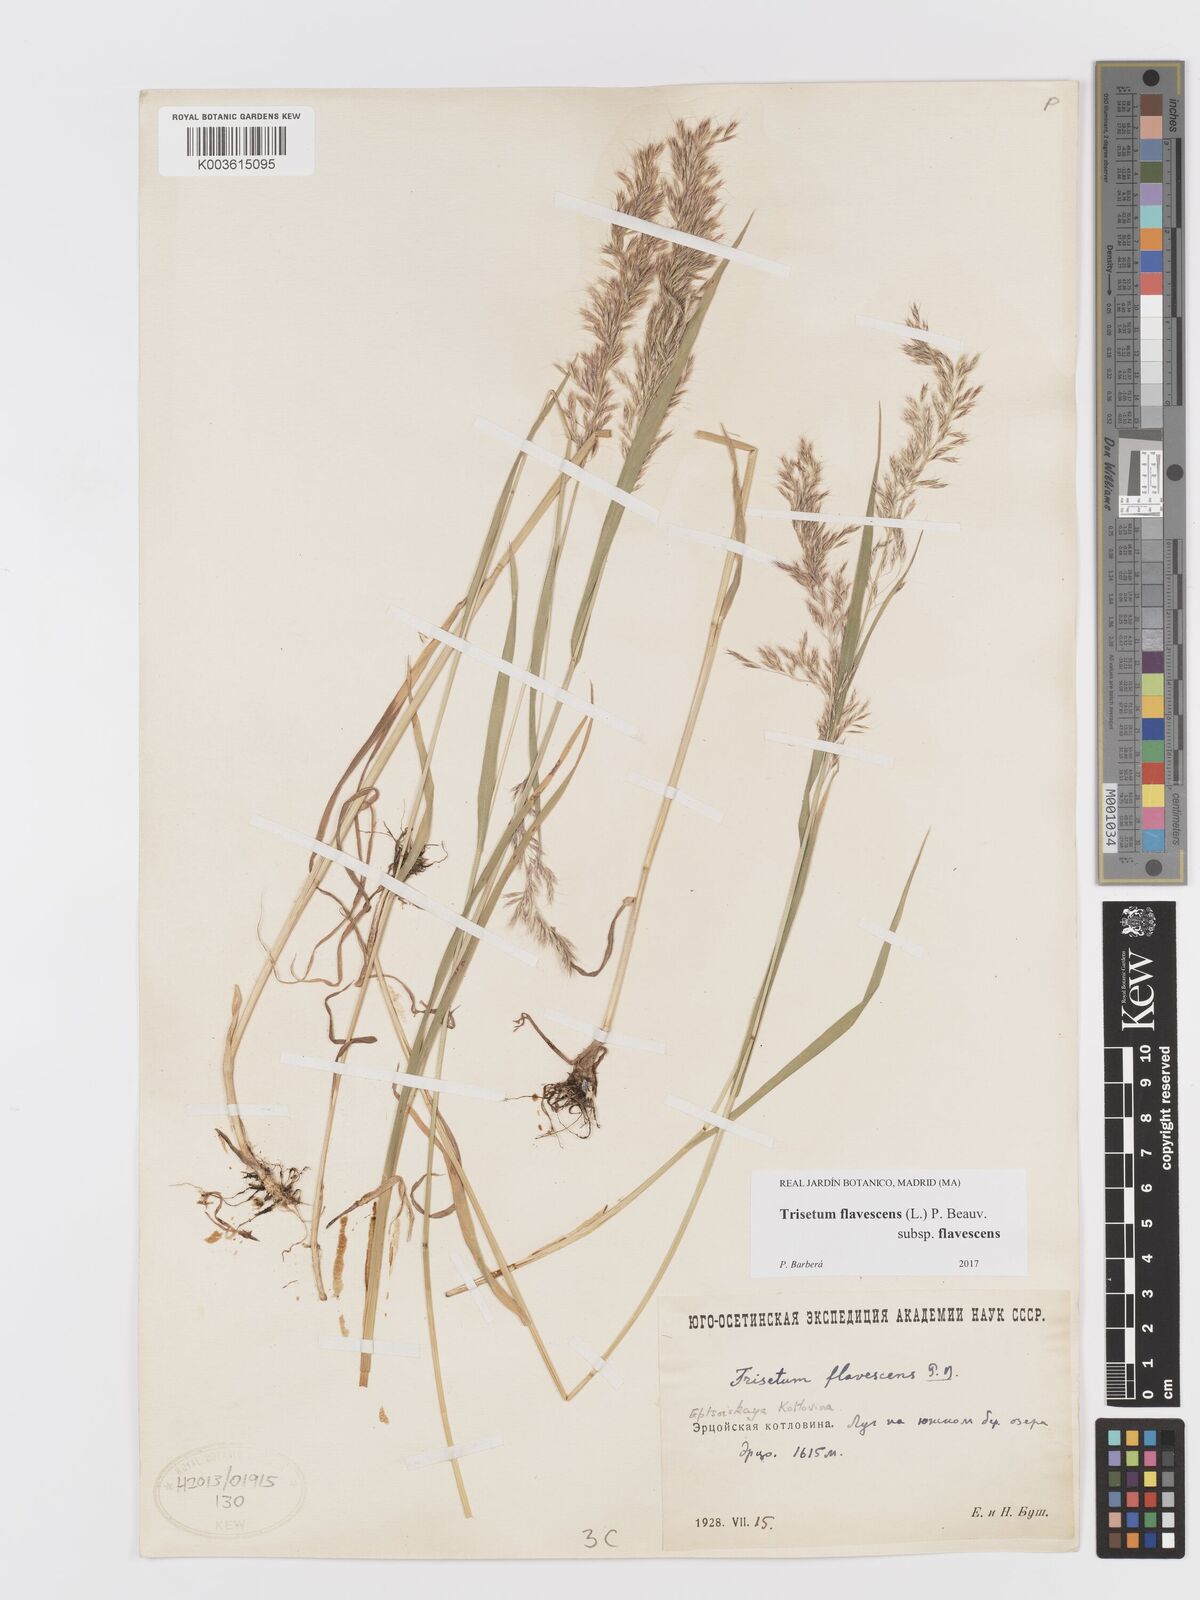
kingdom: Plantae
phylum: Tracheophyta
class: Liliopsida
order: Poales
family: Poaceae
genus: Trisetum
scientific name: Trisetum flavescens
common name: Yellow oat-grass
